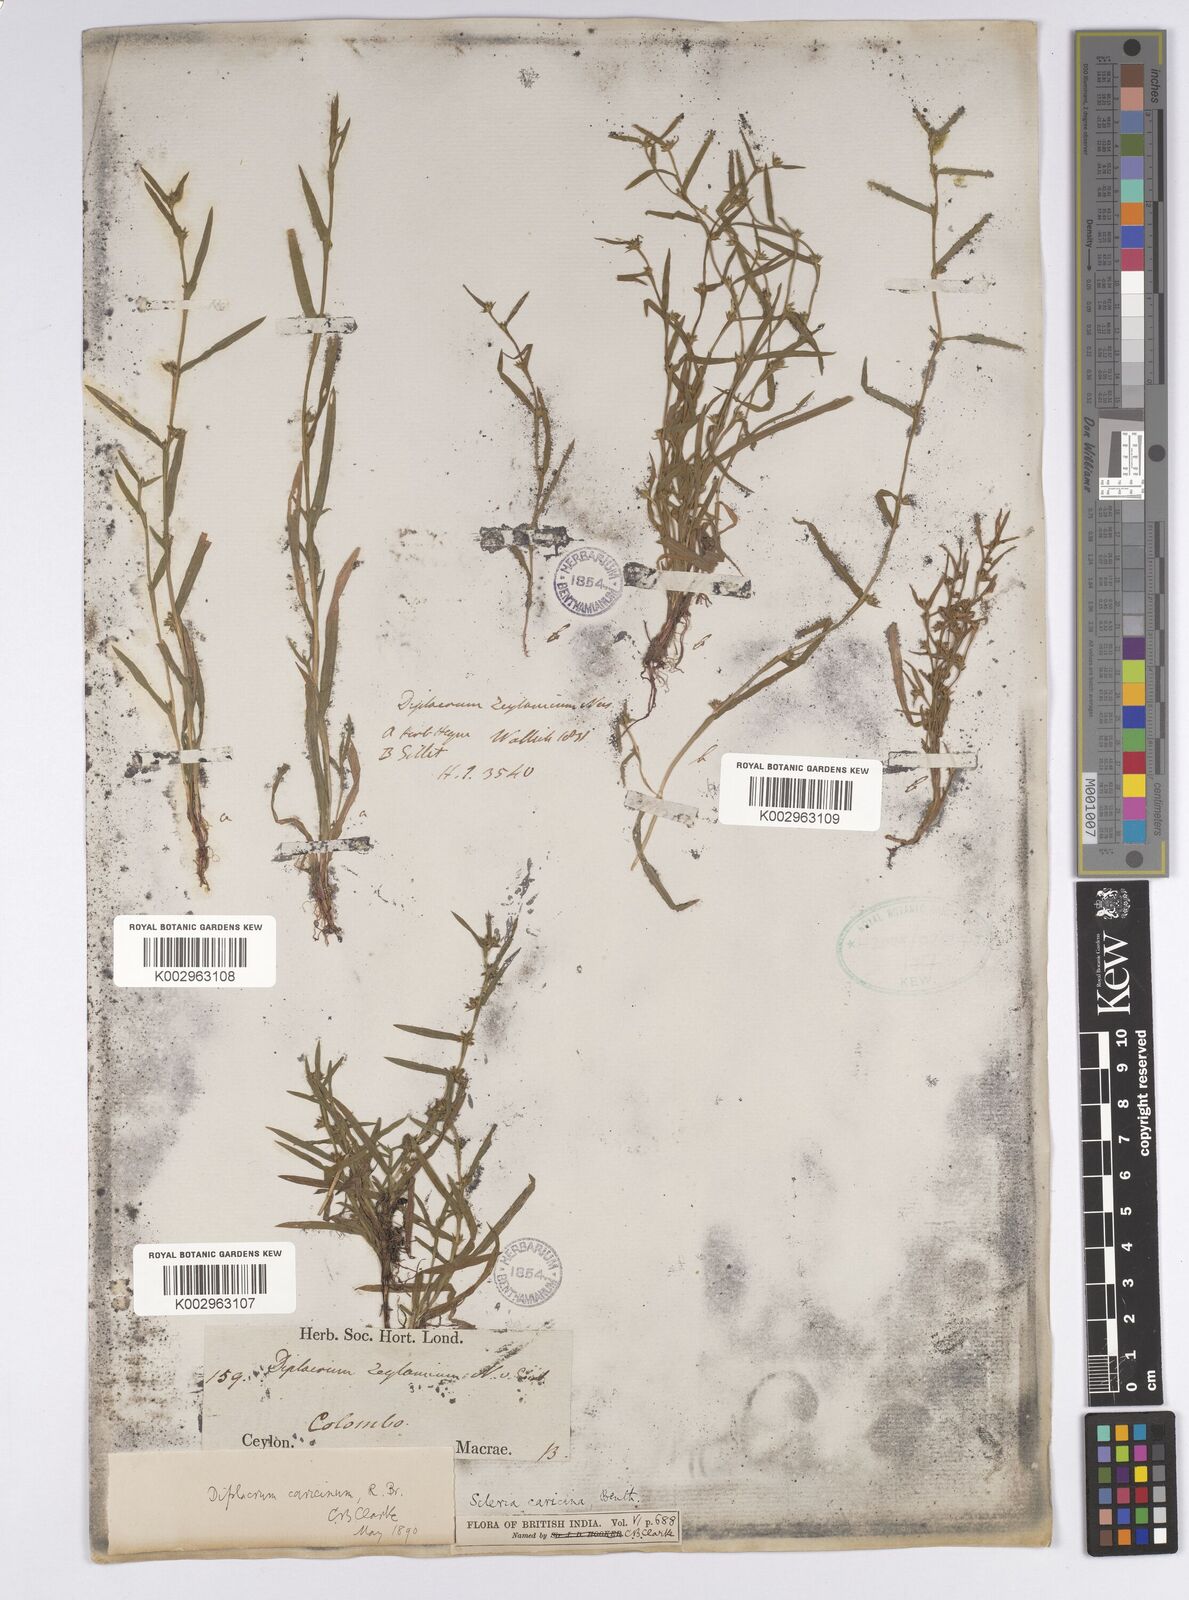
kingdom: Plantae
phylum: Tracheophyta
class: Liliopsida
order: Poales
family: Cyperaceae
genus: Diplacrum
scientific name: Diplacrum caricinum
